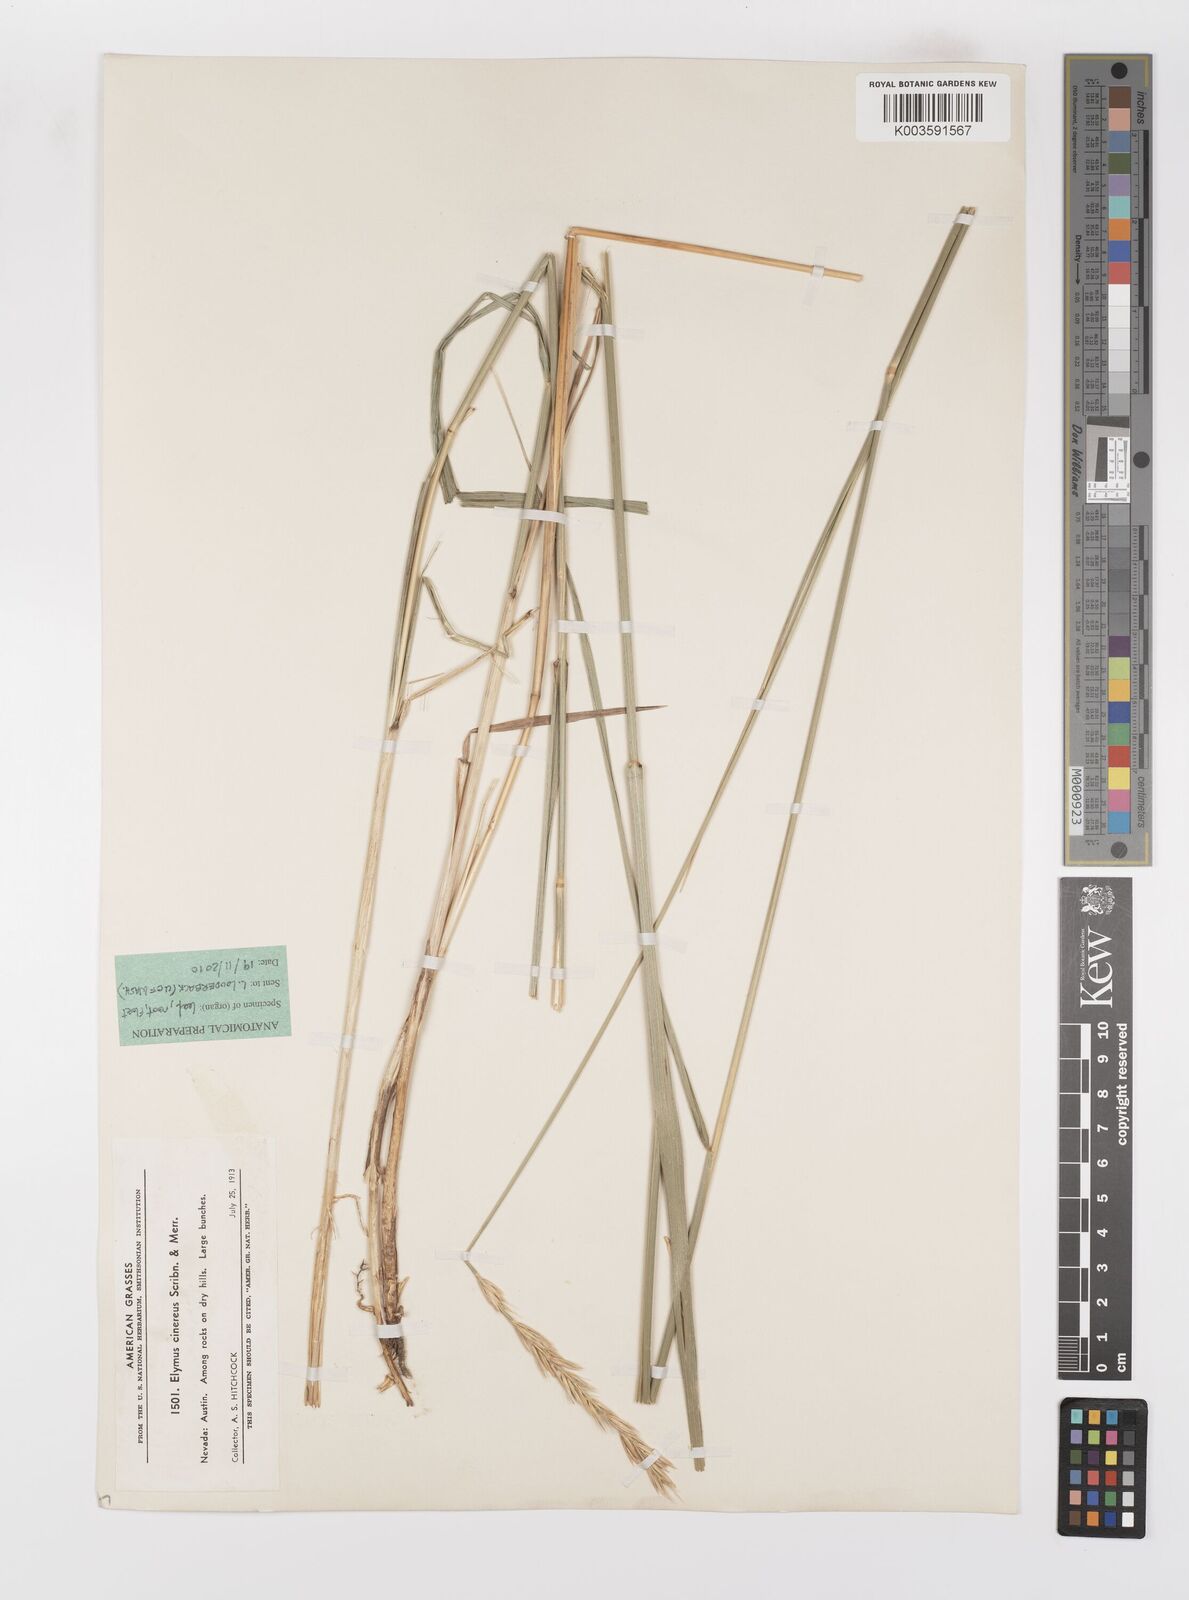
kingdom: Plantae
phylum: Tracheophyta
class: Liliopsida
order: Poales
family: Poaceae
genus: Leymus
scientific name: Leymus cinereus
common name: Basin wild rye
